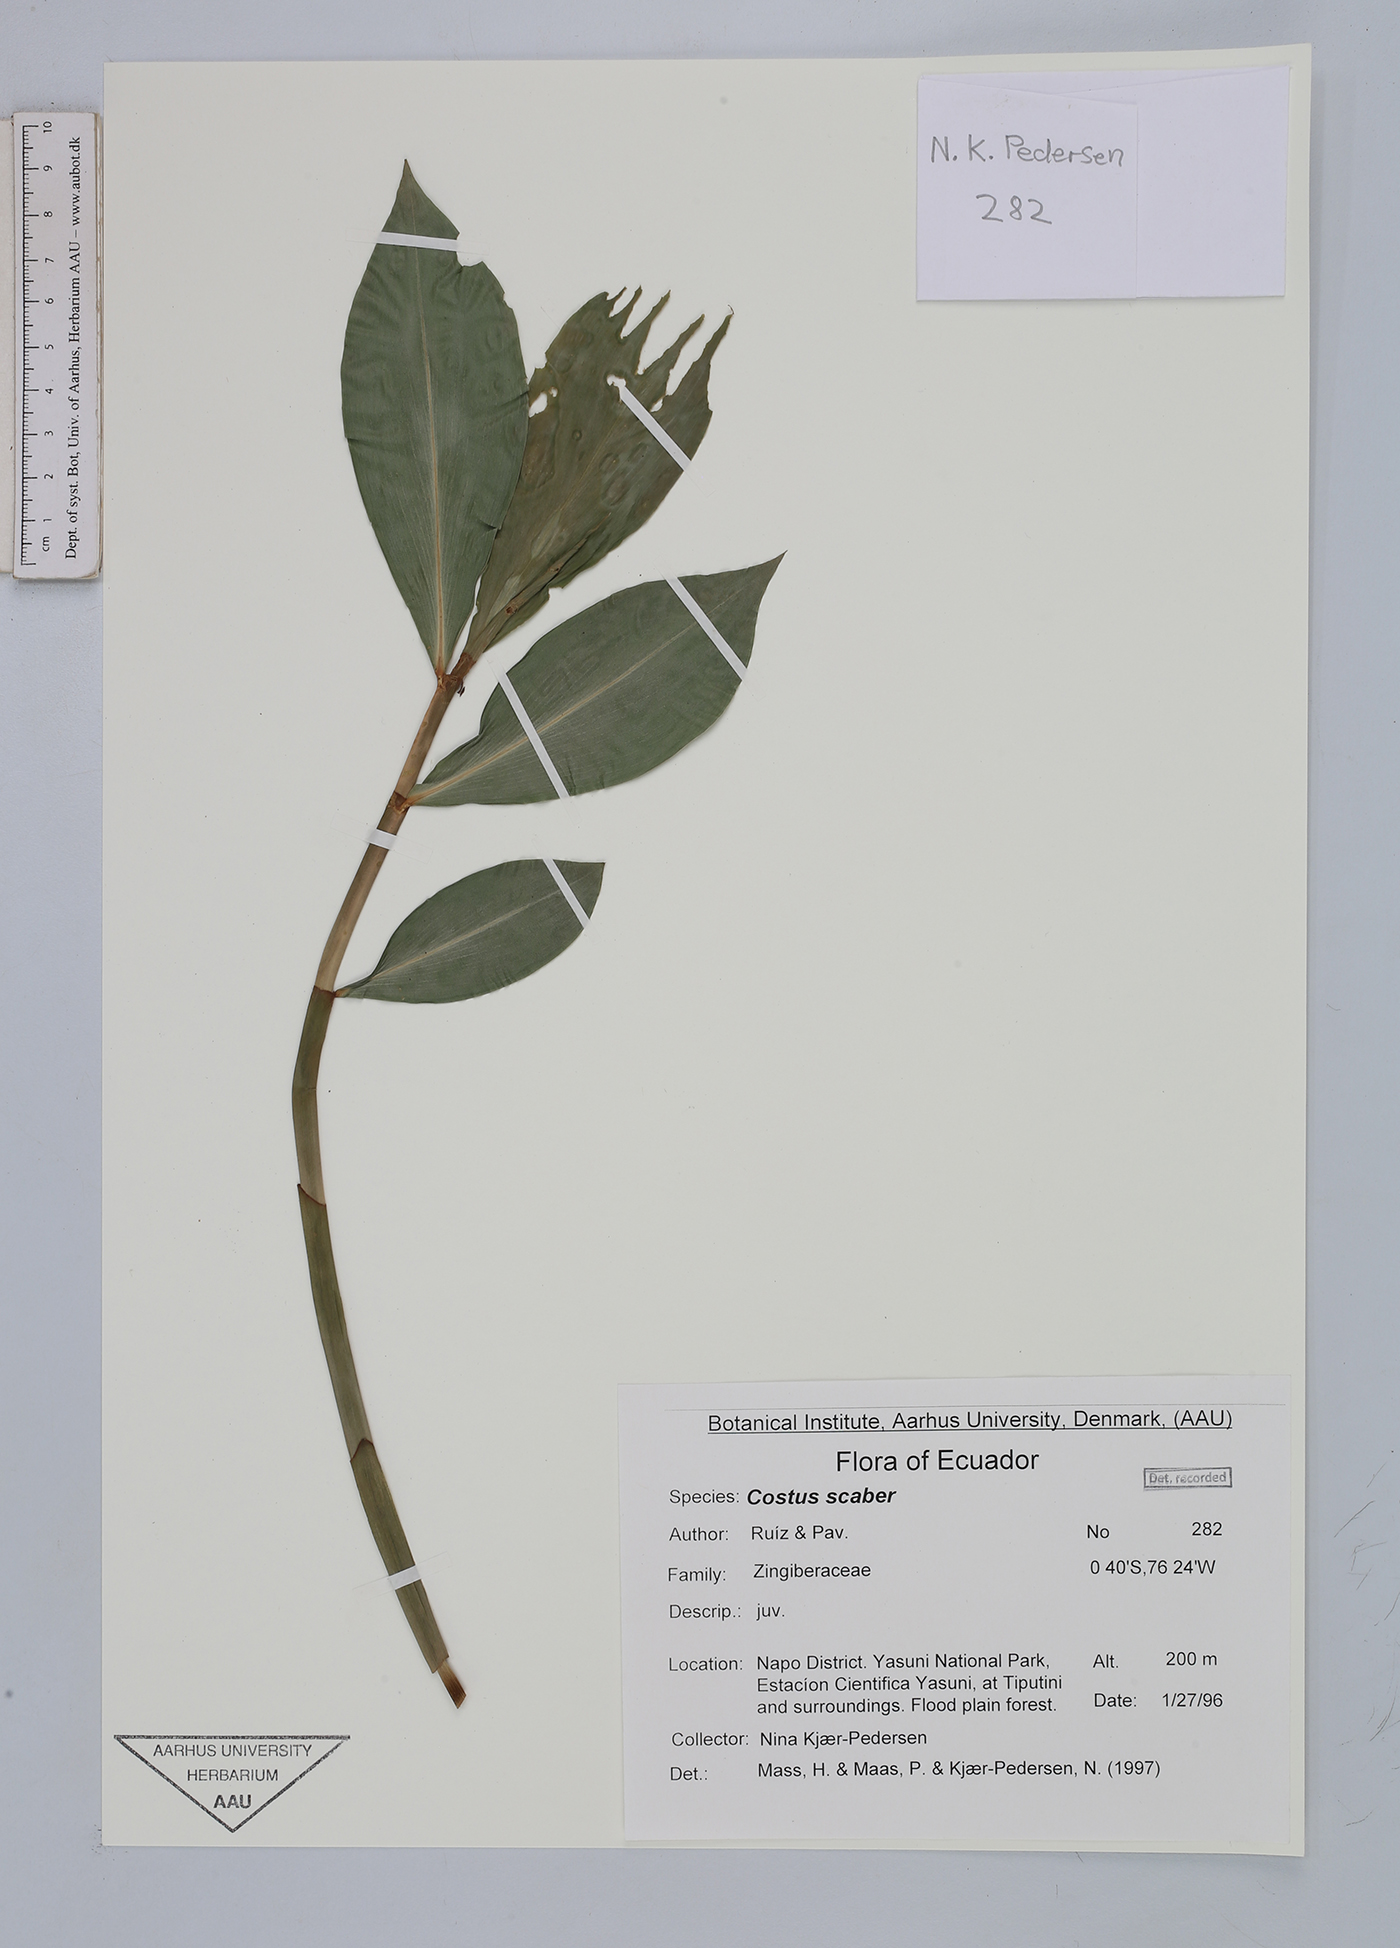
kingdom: Plantae
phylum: Tracheophyta
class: Liliopsida
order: Zingiberales
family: Costaceae
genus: Costus
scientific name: Costus scaber
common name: Spiral head ginger
